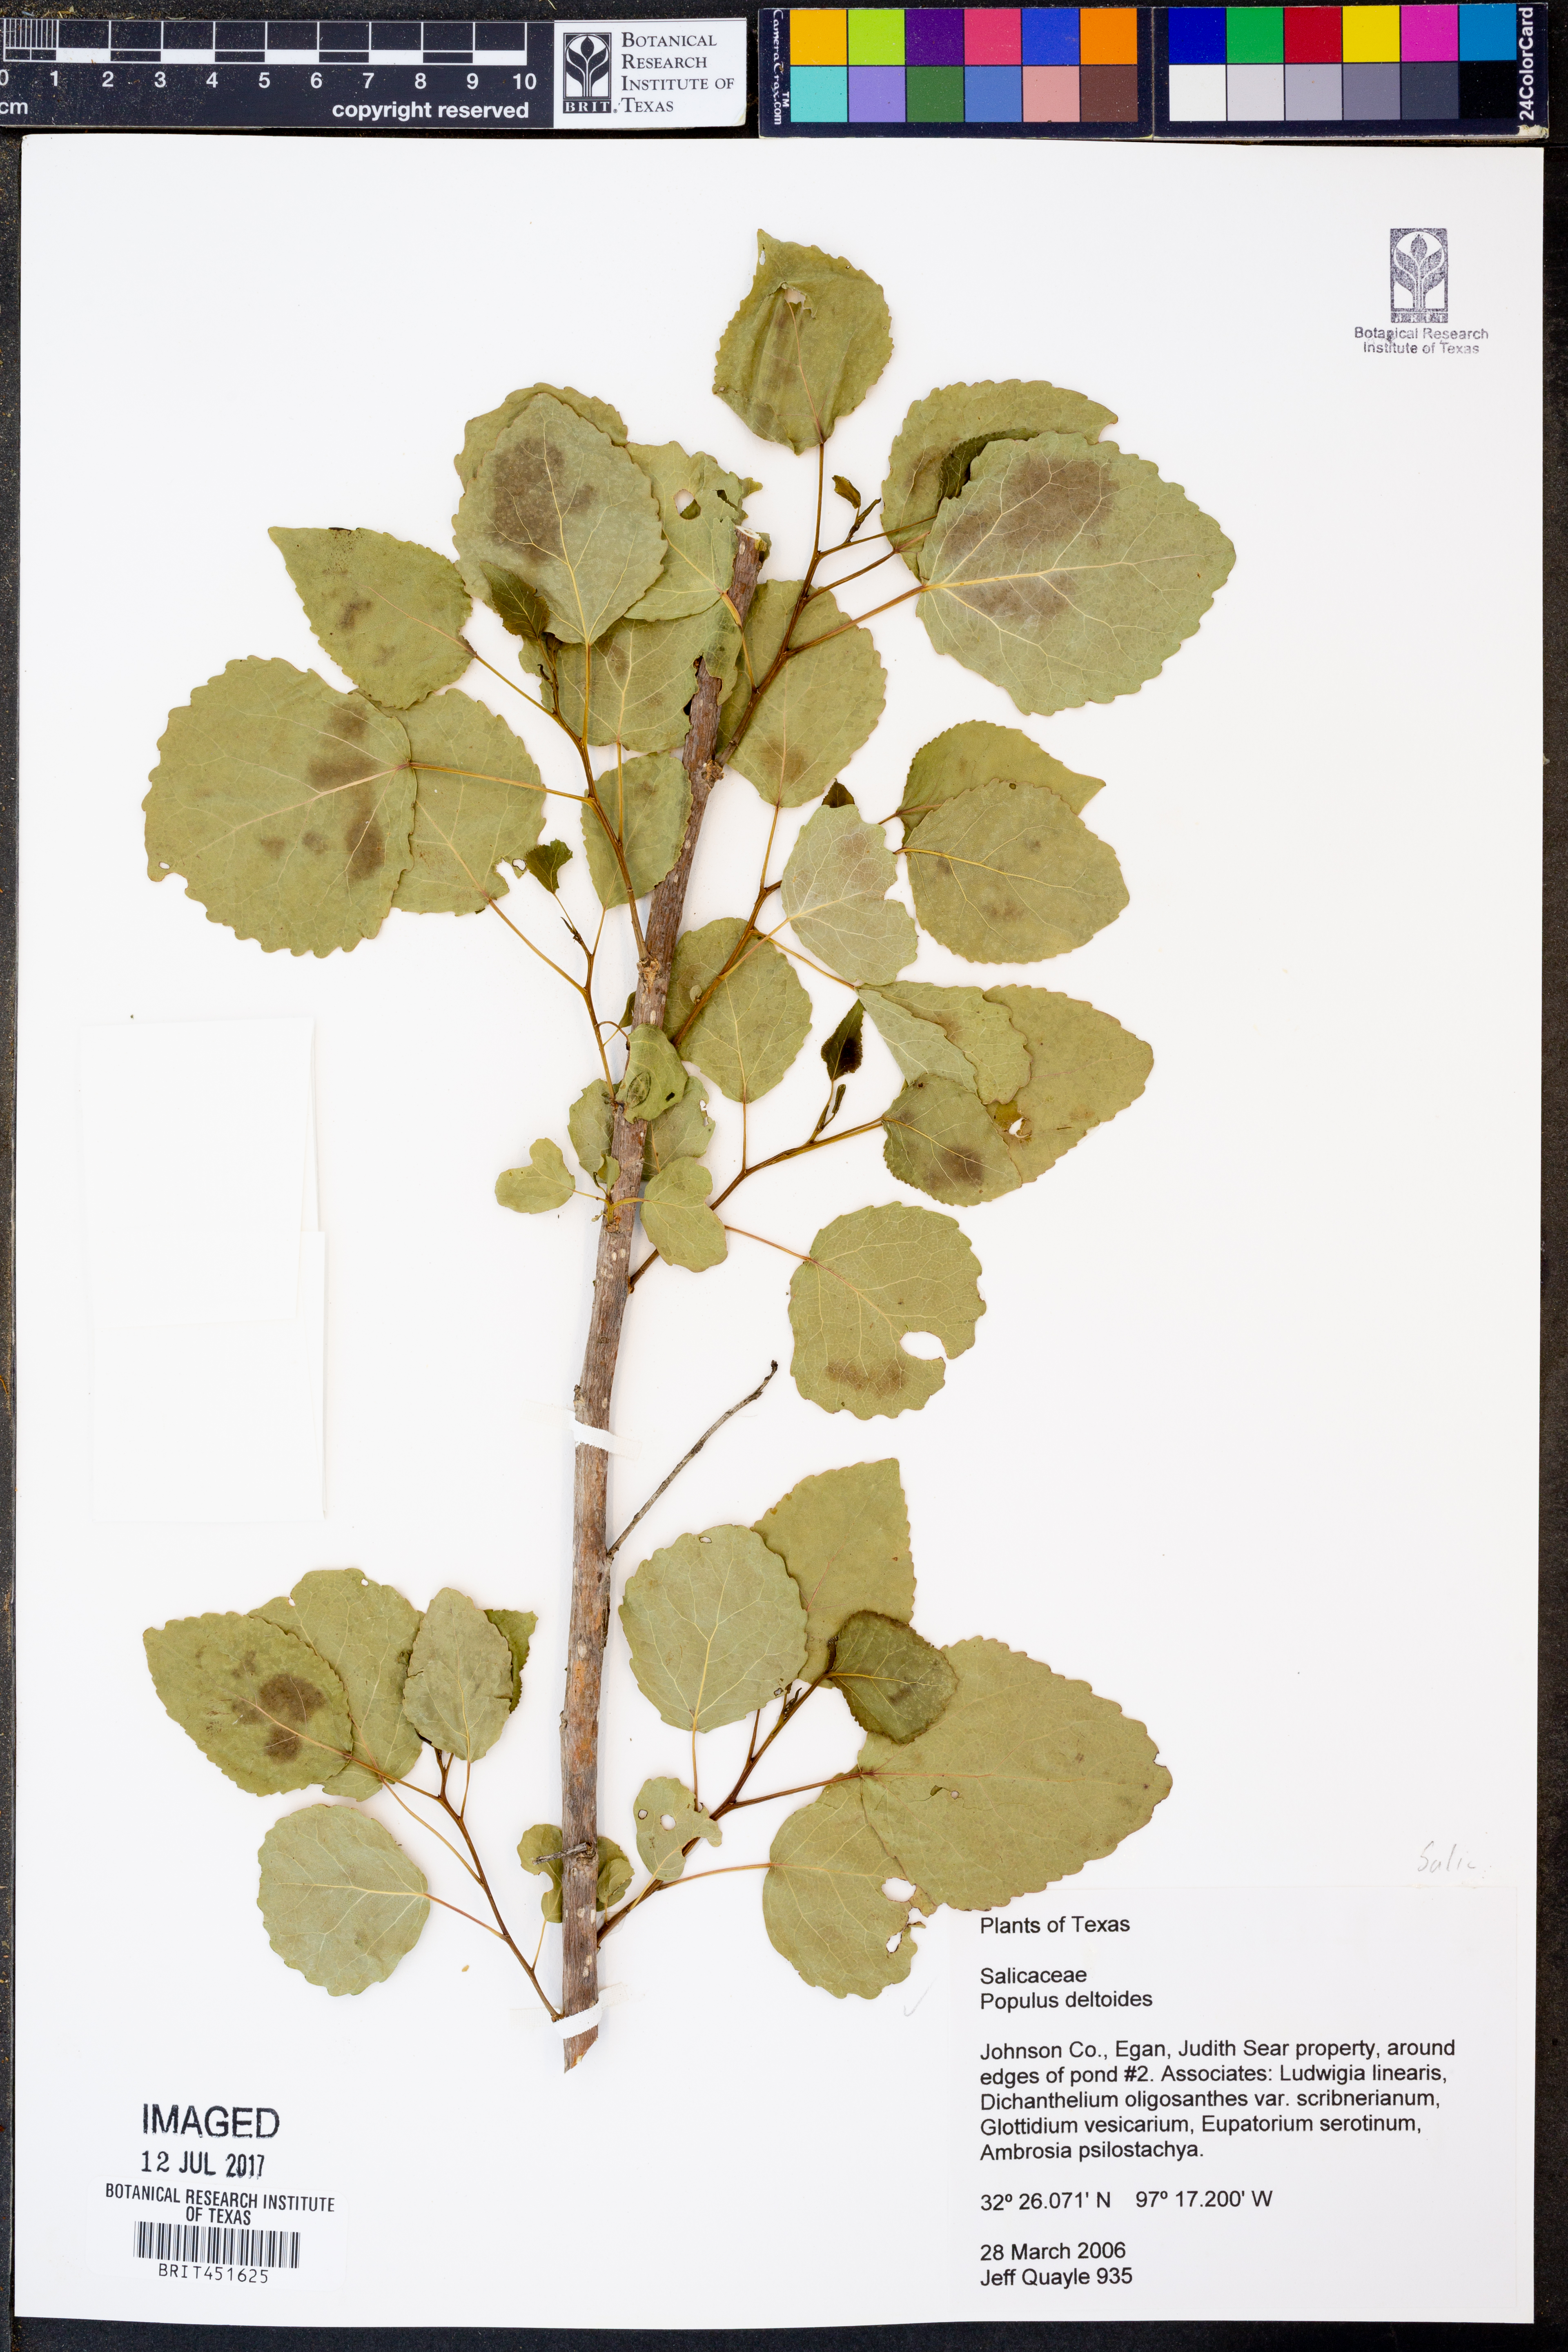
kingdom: Plantae
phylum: Tracheophyta
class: Magnoliopsida
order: Malpighiales
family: Salicaceae
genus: Populus
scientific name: Populus deltoides
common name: Eastern cottonwood
